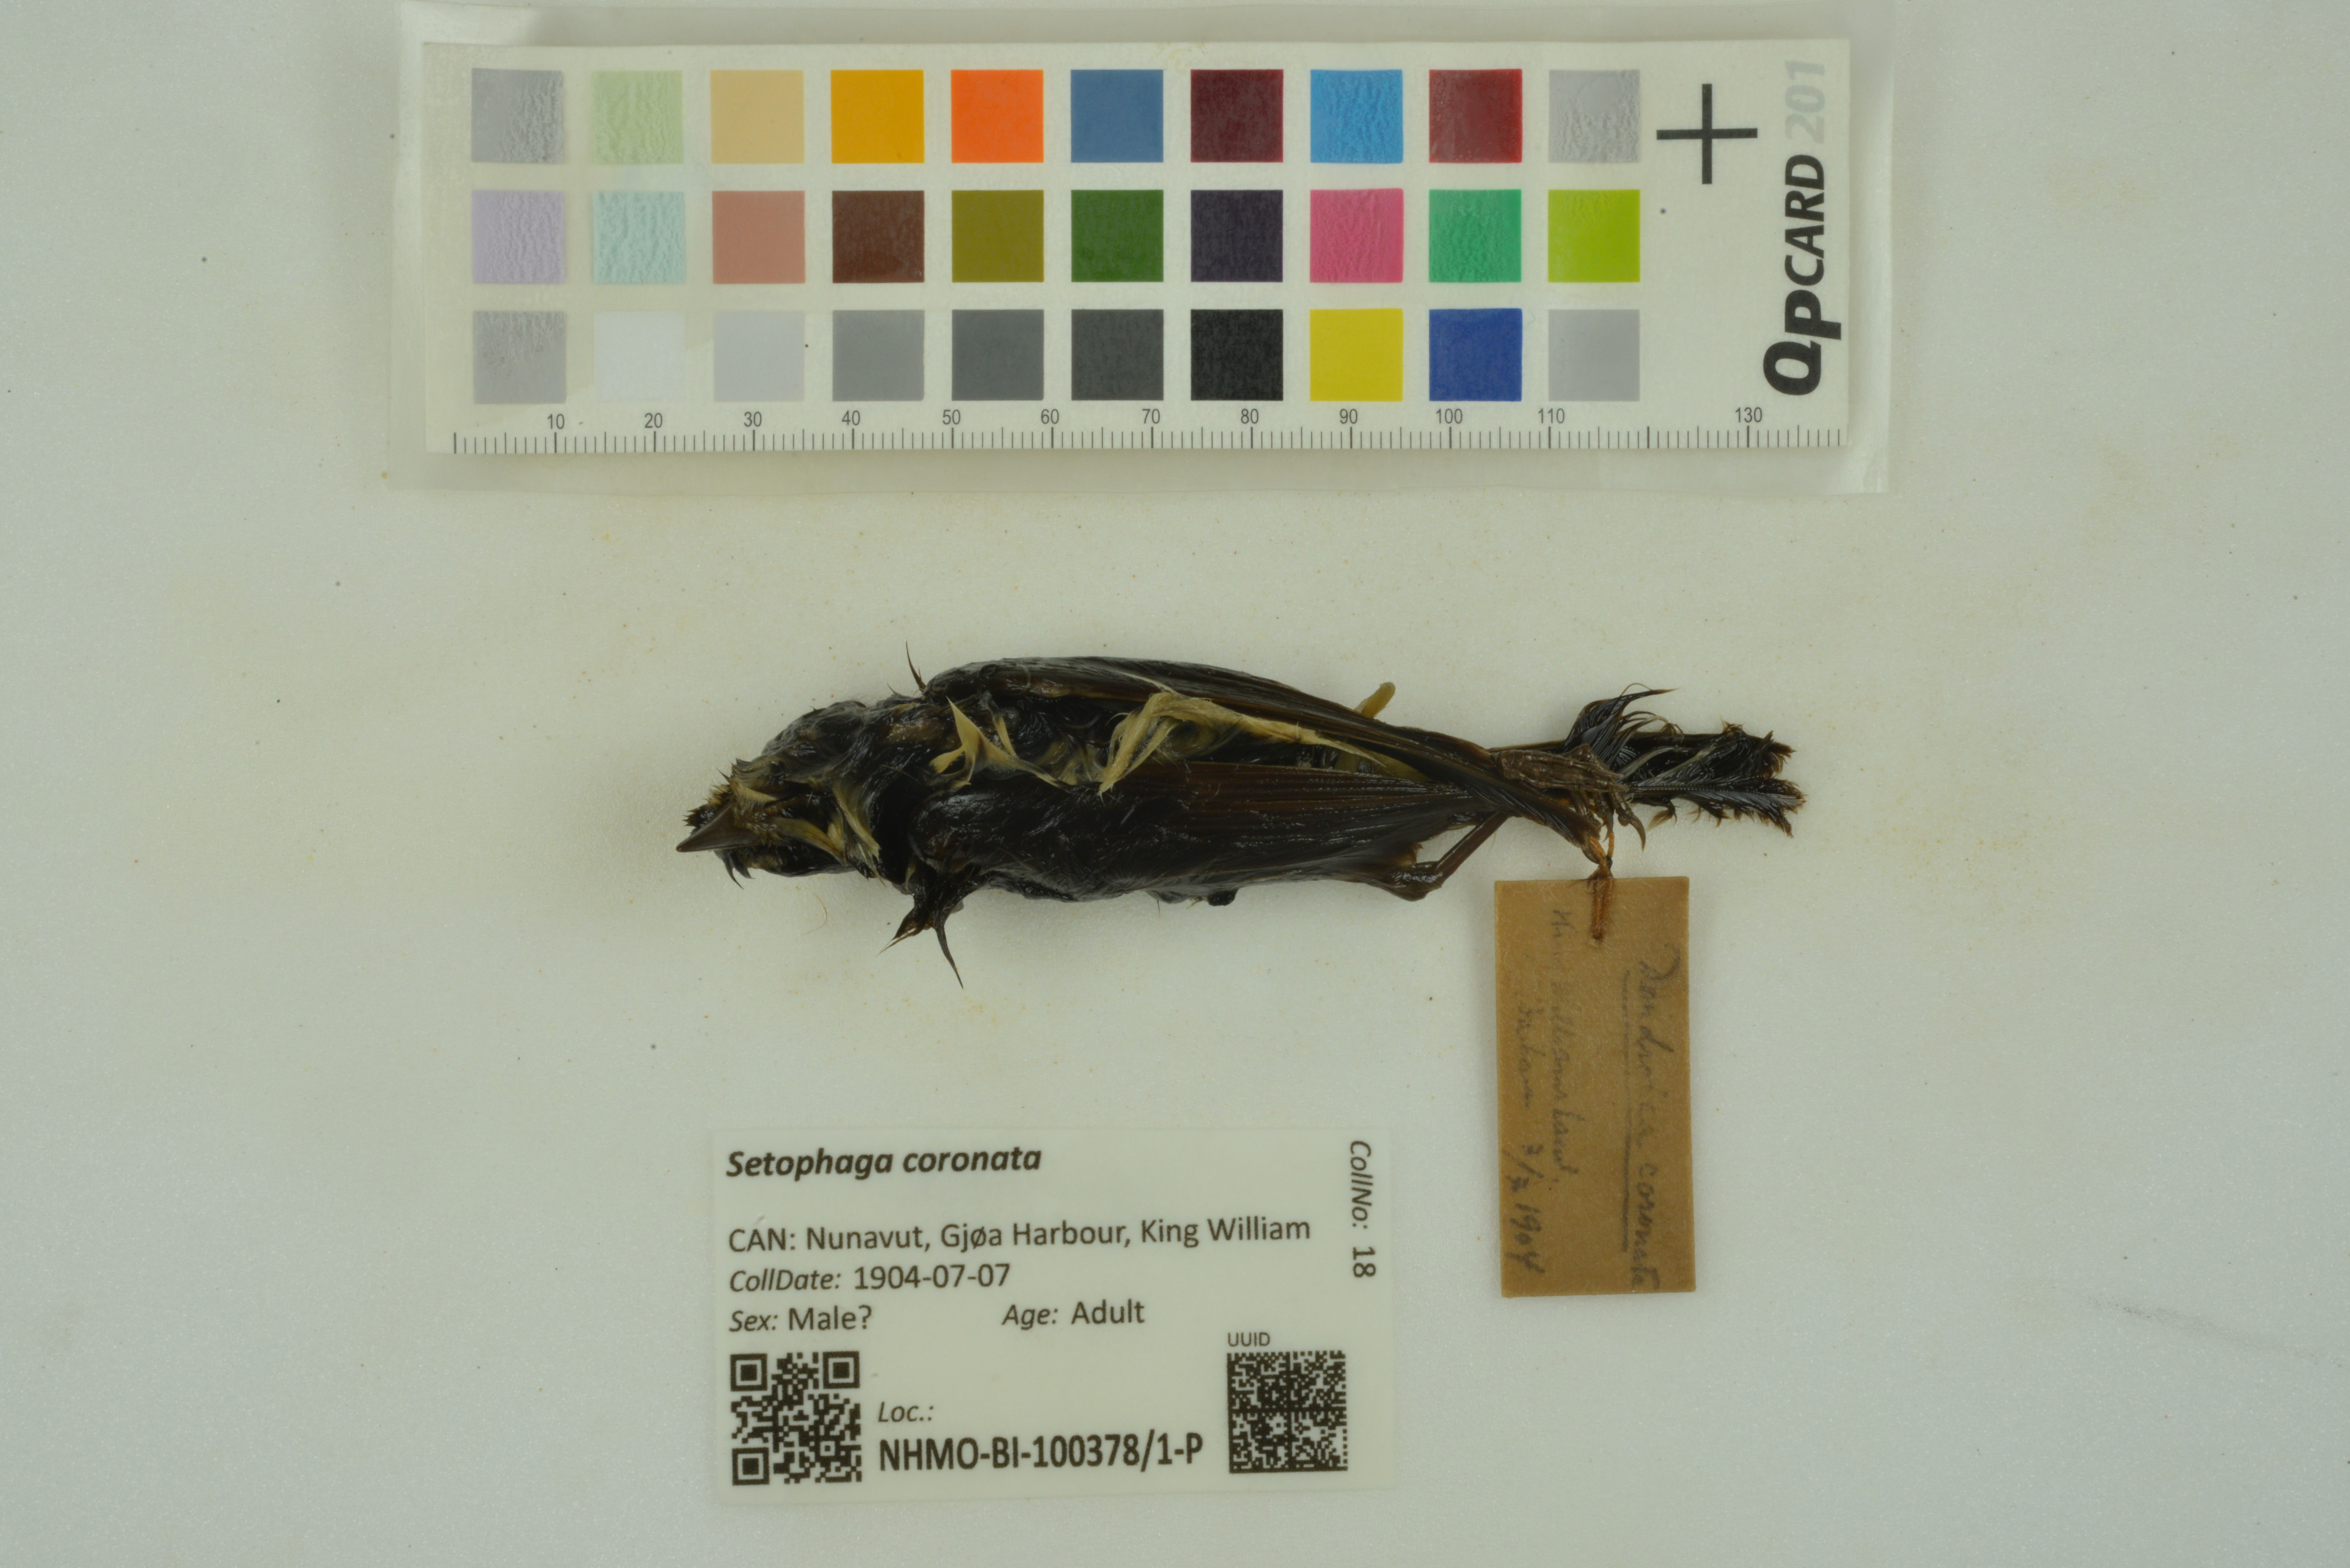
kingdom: Animalia
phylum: Chordata
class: Aves
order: Passeriformes
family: Parulidae
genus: Setophaga
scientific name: Setophaga coronata
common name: Myrtle warbler
